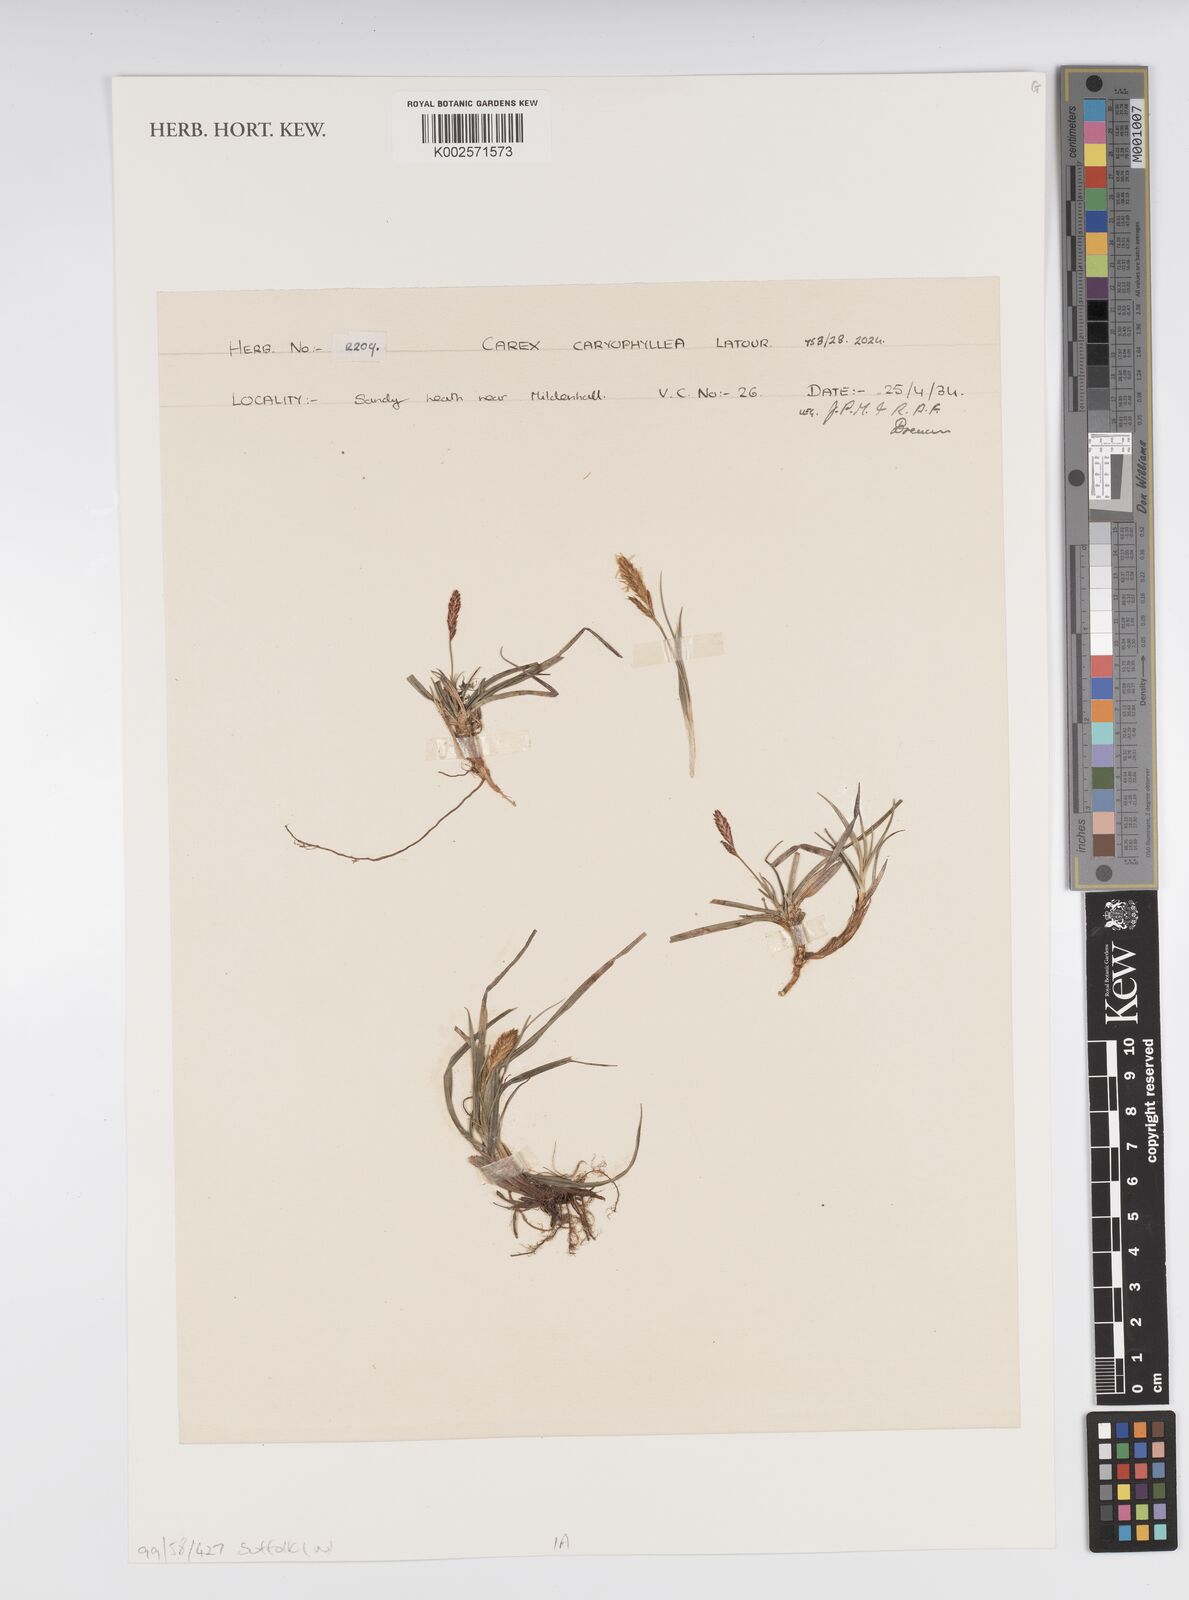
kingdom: Plantae
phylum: Tracheophyta
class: Liliopsida
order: Poales
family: Cyperaceae
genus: Carex
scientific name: Carex caryophyllea
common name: Spring sedge
